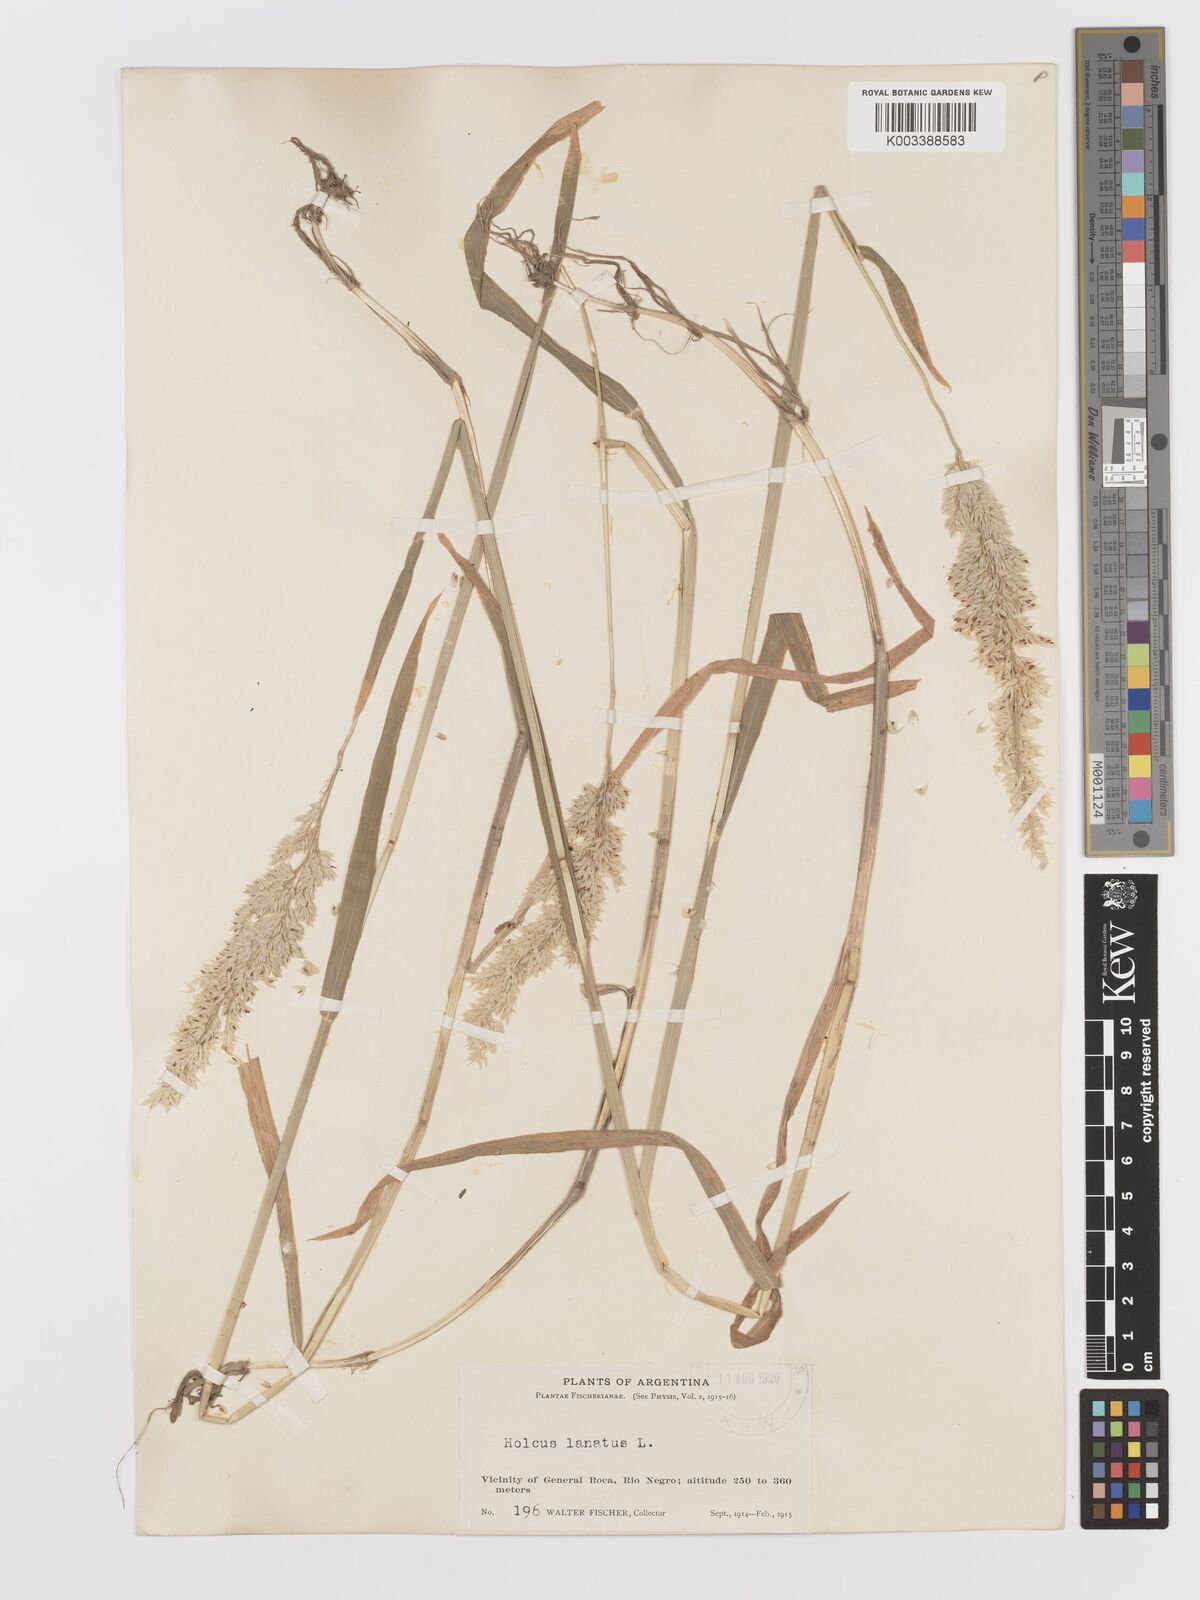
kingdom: Plantae
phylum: Tracheophyta
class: Liliopsida
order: Poales
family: Poaceae
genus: Holcus
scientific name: Holcus lanatus
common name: Yorkshire-fog
